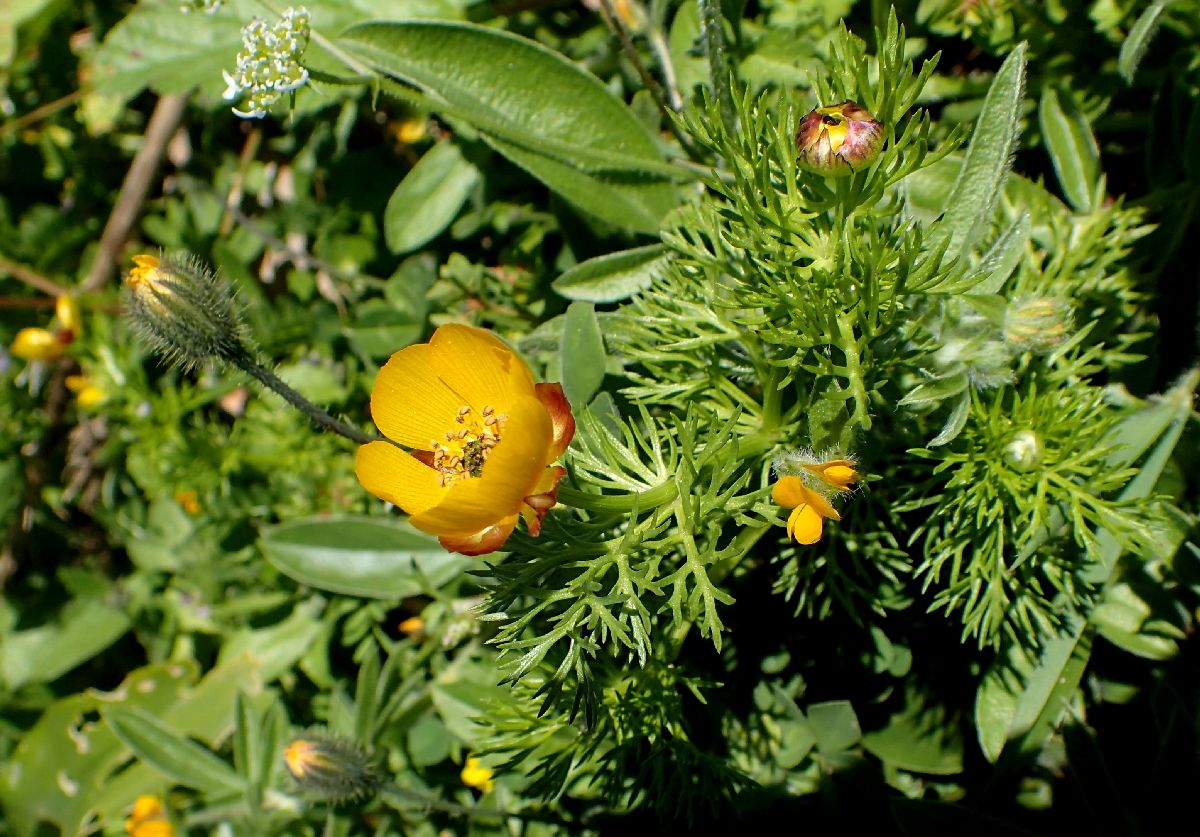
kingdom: Plantae
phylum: Tracheophyta
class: Magnoliopsida
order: Ranunculales
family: Ranunculaceae
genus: Adonis
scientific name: Adonis cretica
